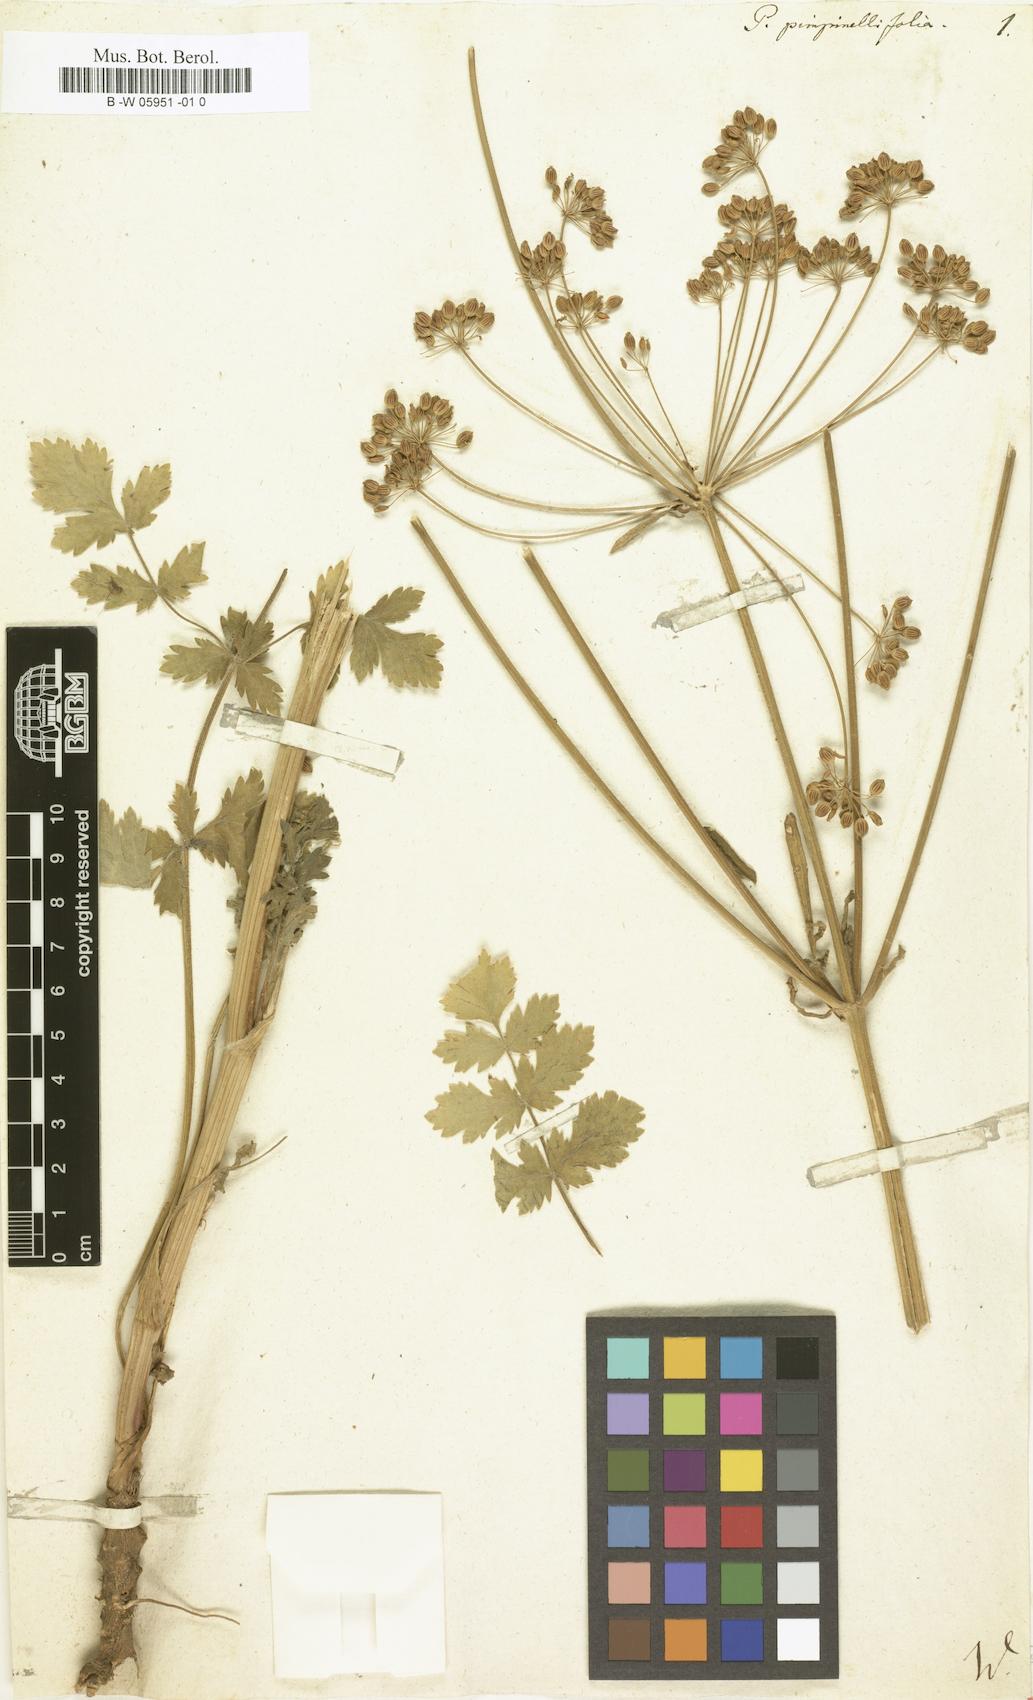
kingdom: Plantae
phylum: Tracheophyta
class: Magnoliopsida
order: Apiales
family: Apiaceae
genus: Pastinaca
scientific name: Pastinaca pimpinellifolia
